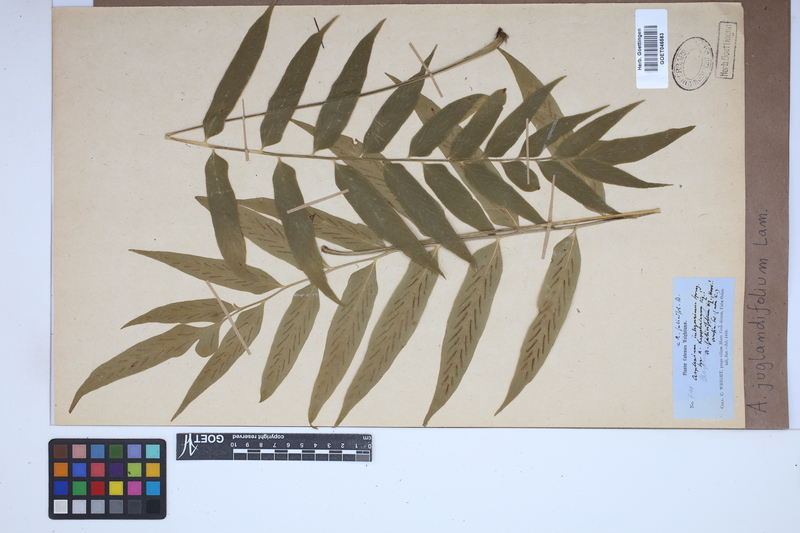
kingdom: Plantae
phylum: Tracheophyta
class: Polypodiopsida
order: Polypodiales
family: Aspleniaceae
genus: Asplenium
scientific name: Asplenium juglandifolium
